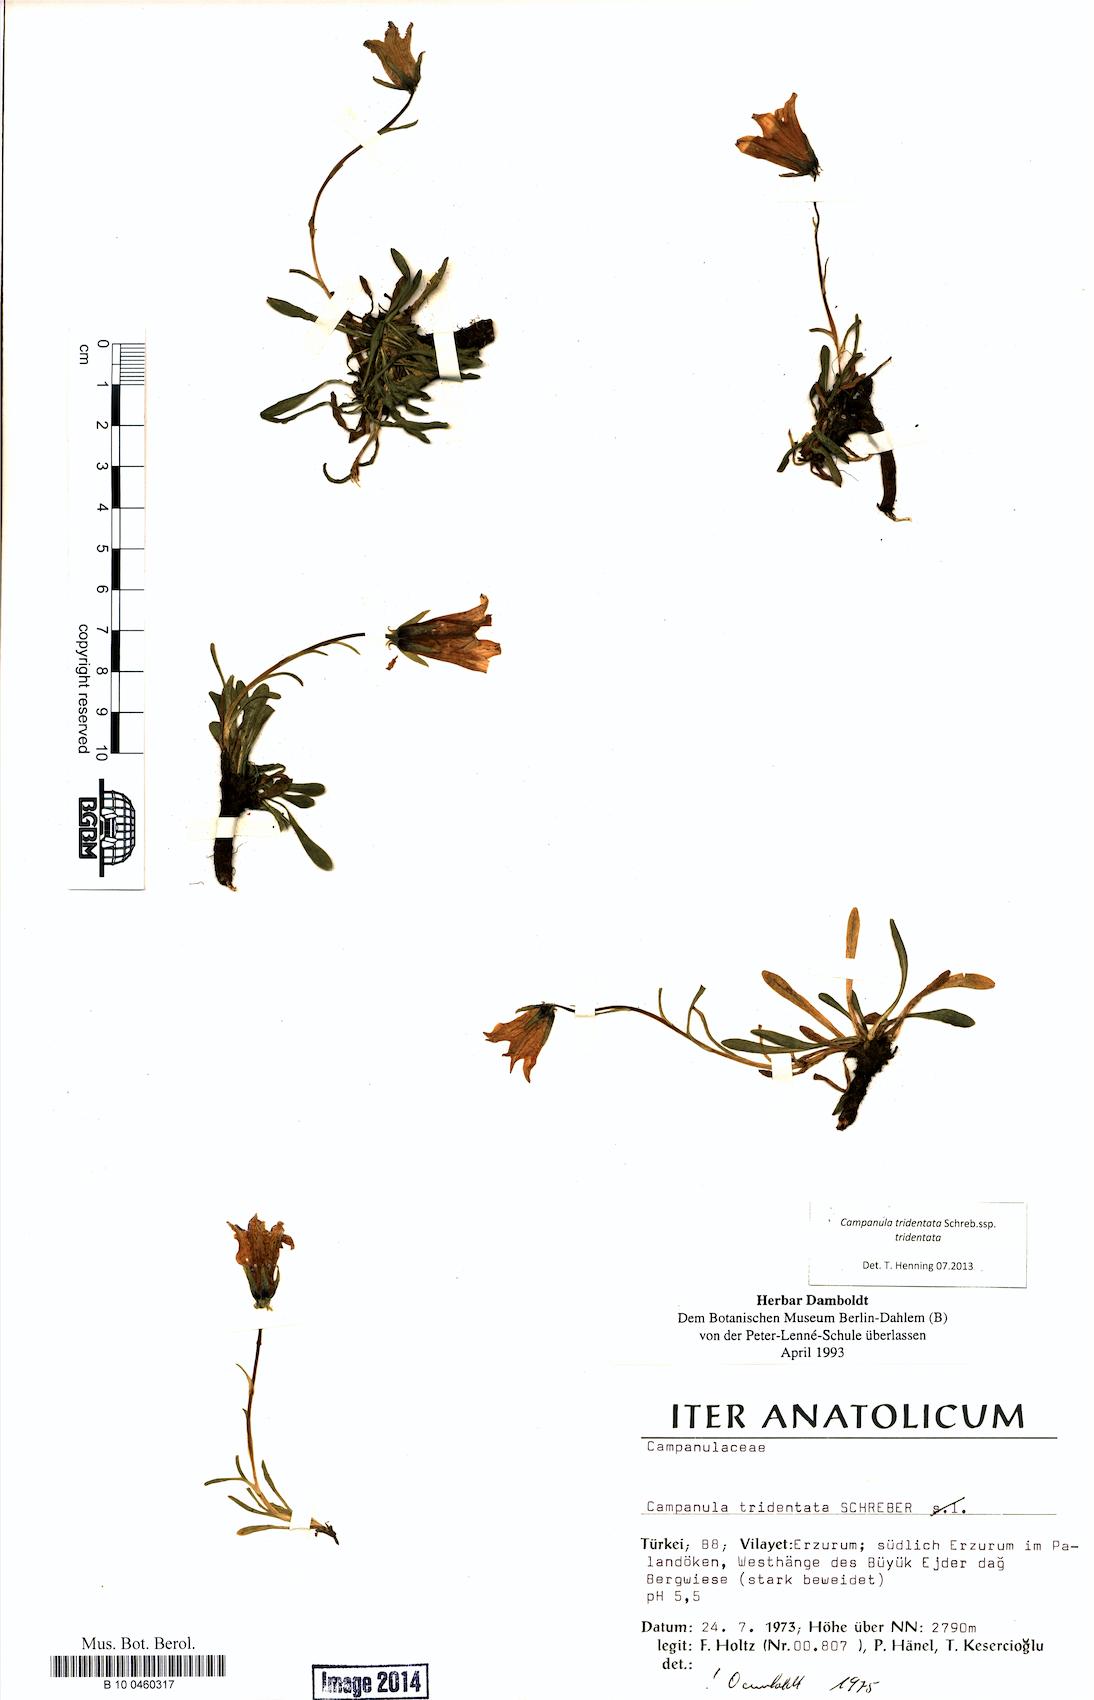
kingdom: Plantae
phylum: Tracheophyta
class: Magnoliopsida
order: Asterales
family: Campanulaceae
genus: Campanula
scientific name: Campanula tridentata
